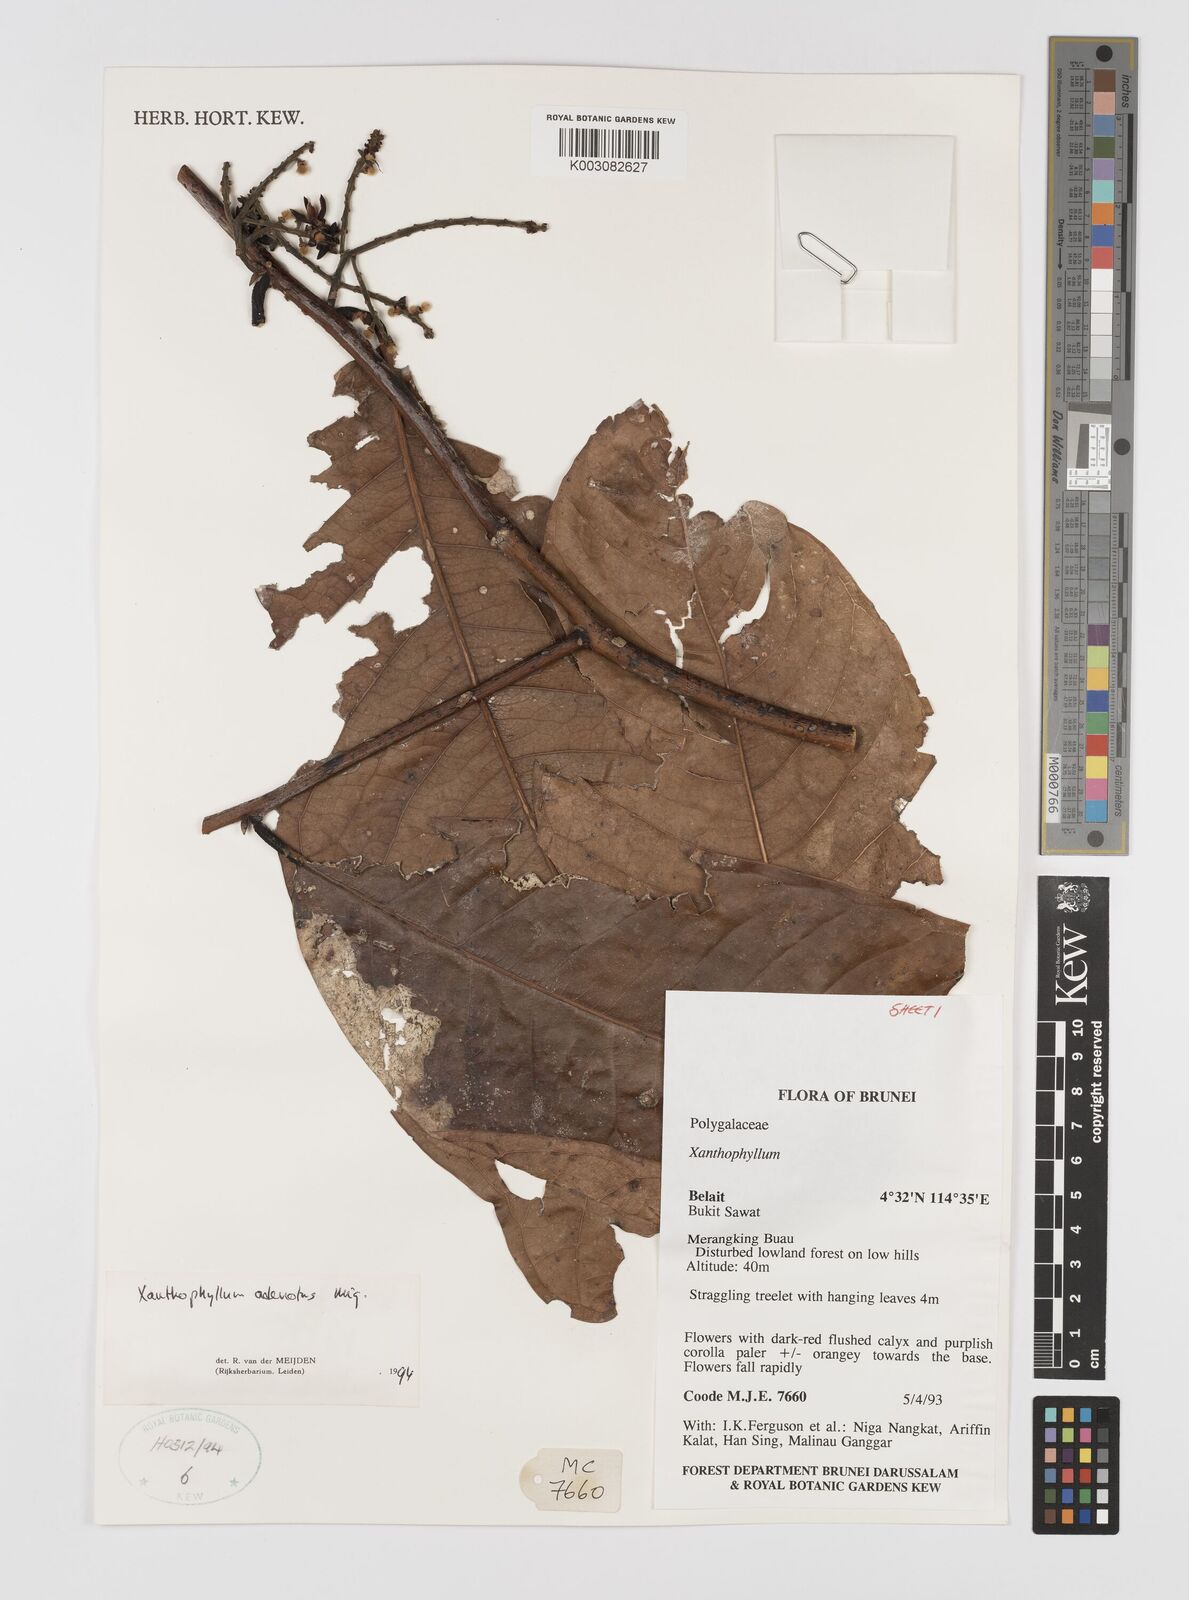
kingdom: Plantae
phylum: Tracheophyta
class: Magnoliopsida
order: Fabales
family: Polygalaceae
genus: Xanthophyllum
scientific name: Xanthophyllum adenotus
